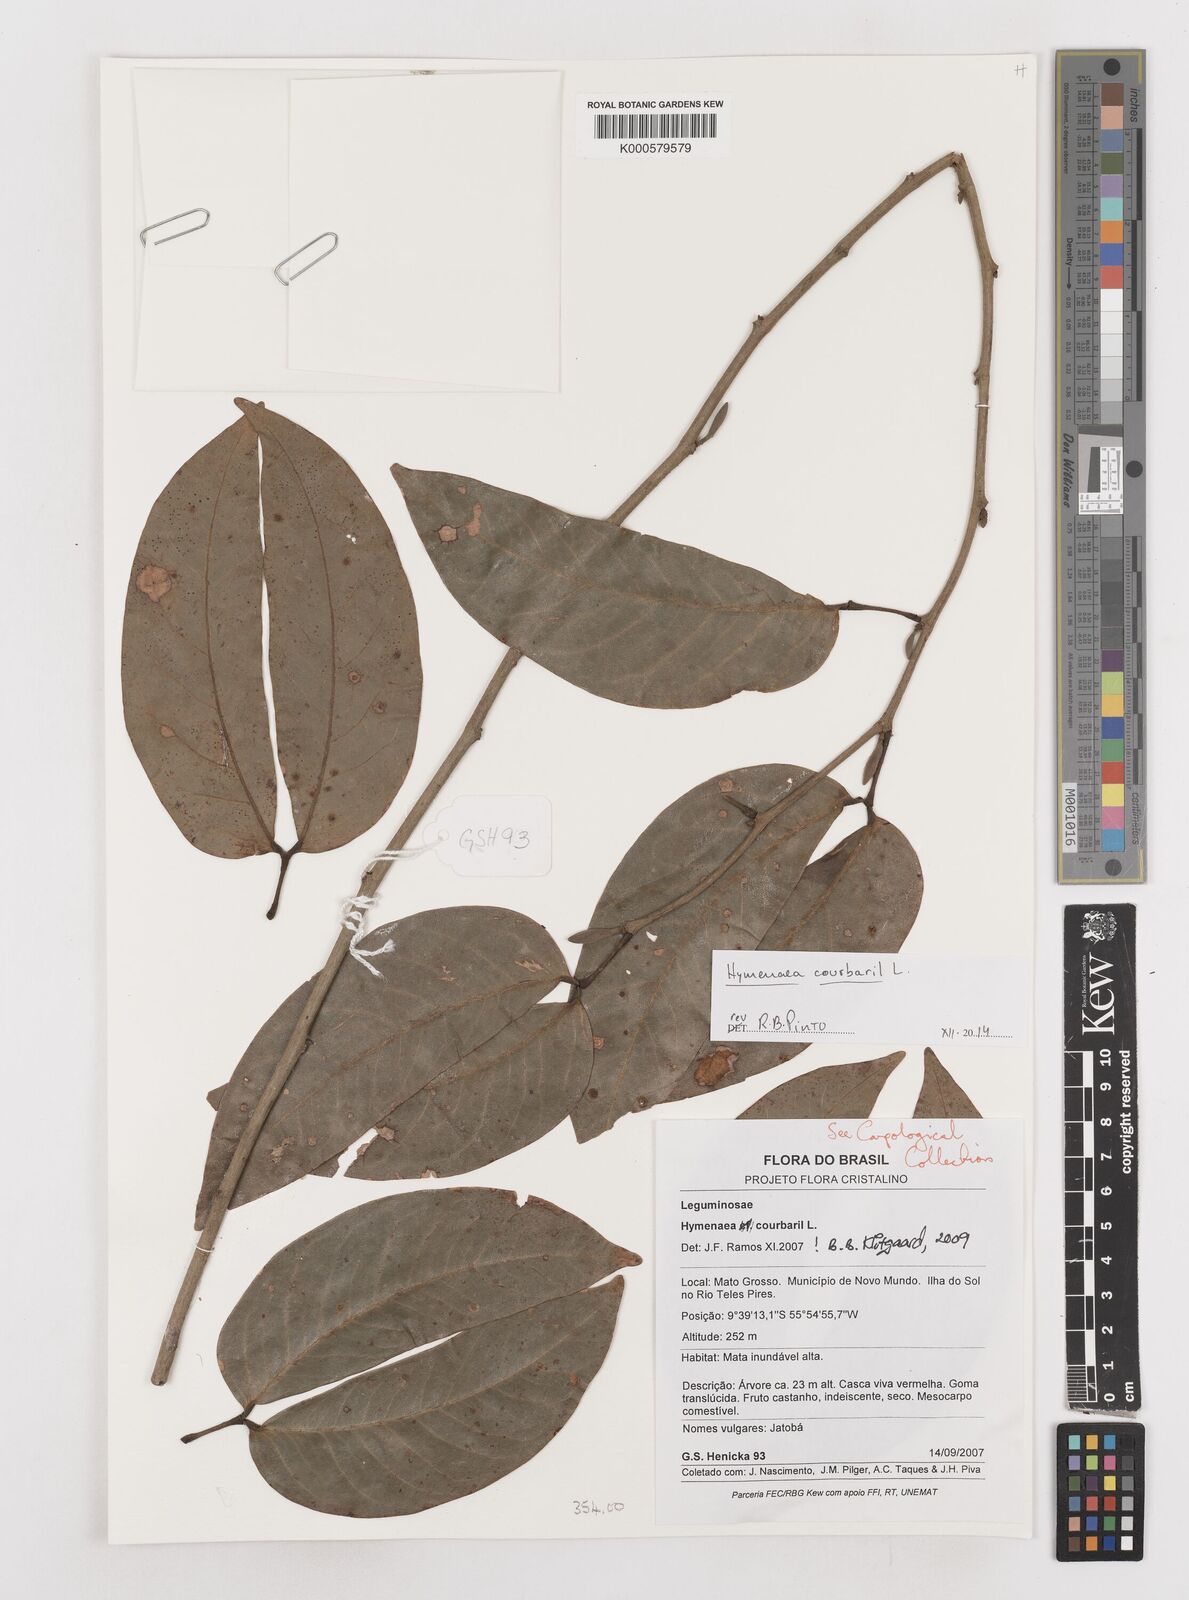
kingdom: Plantae
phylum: Tracheophyta
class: Magnoliopsida
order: Fabales
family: Fabaceae
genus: Hymenaea
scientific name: Hymenaea courbaril
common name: Brazilian copal
